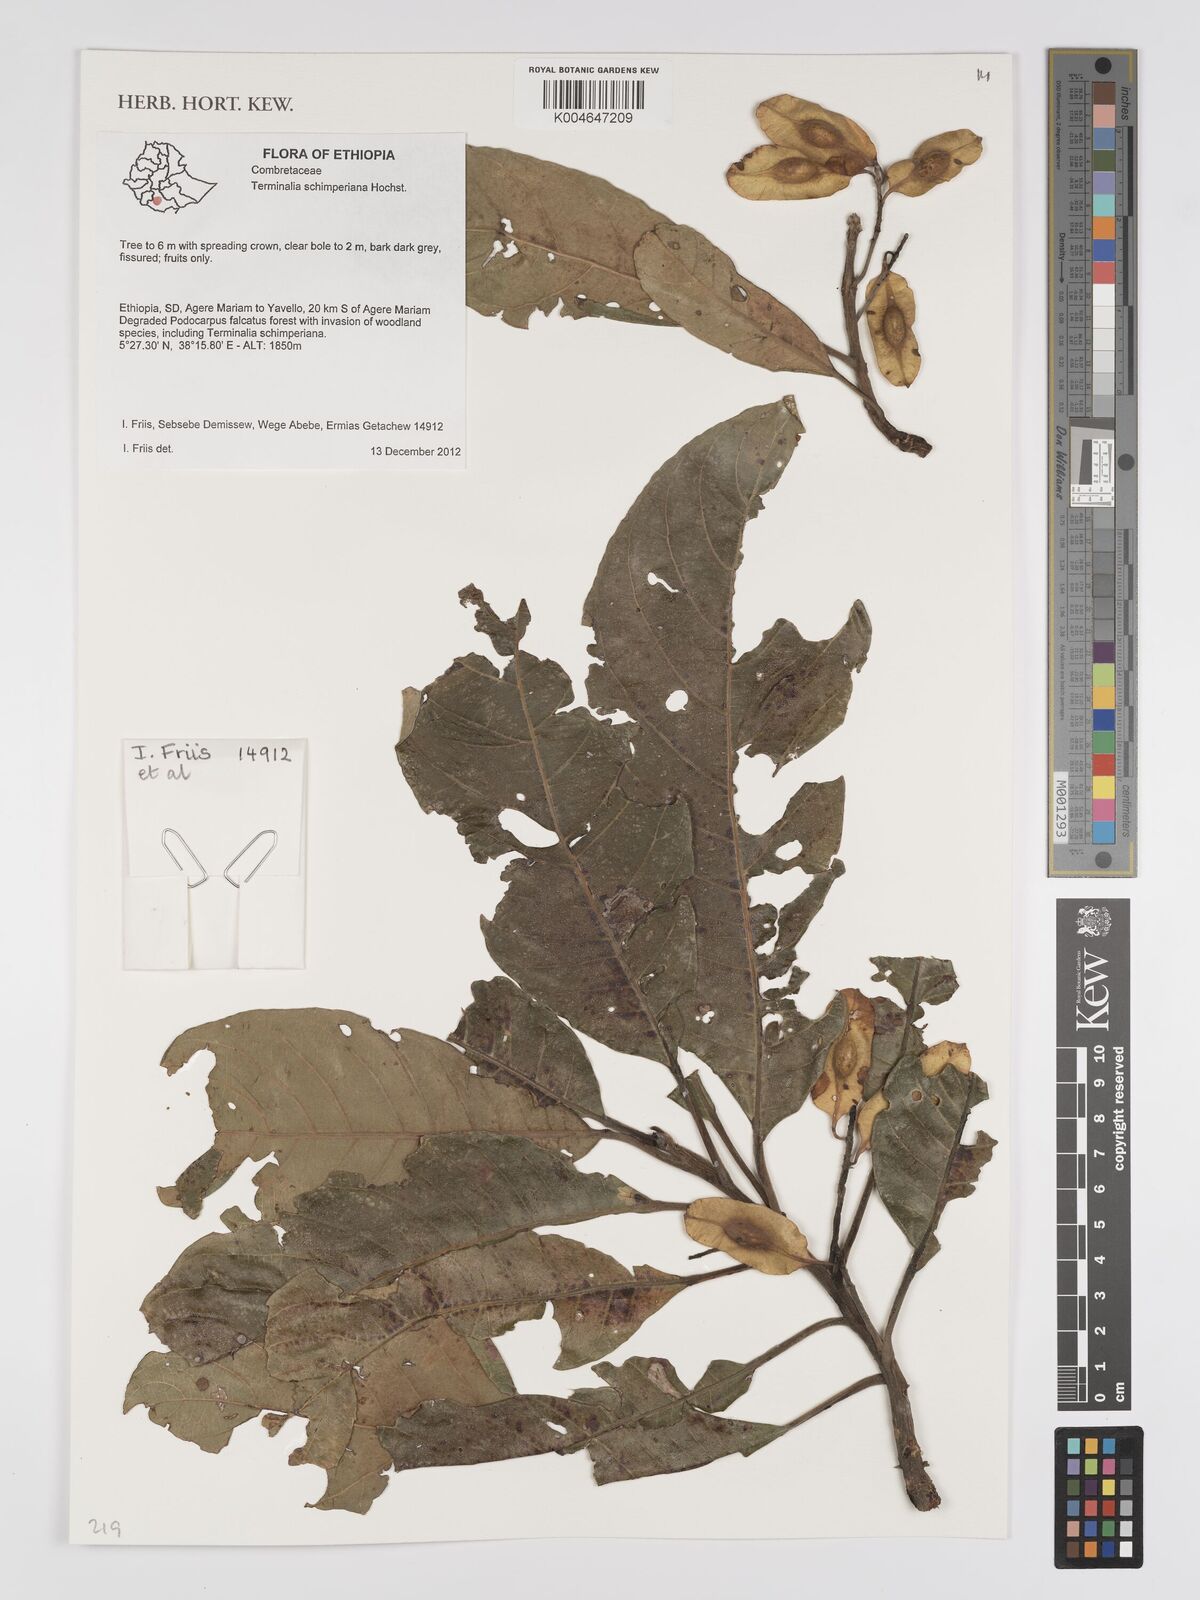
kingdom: Plantae
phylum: Tracheophyta
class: Magnoliopsida
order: Myrtales
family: Combretaceae
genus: Terminalia
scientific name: Terminalia schimperiana
